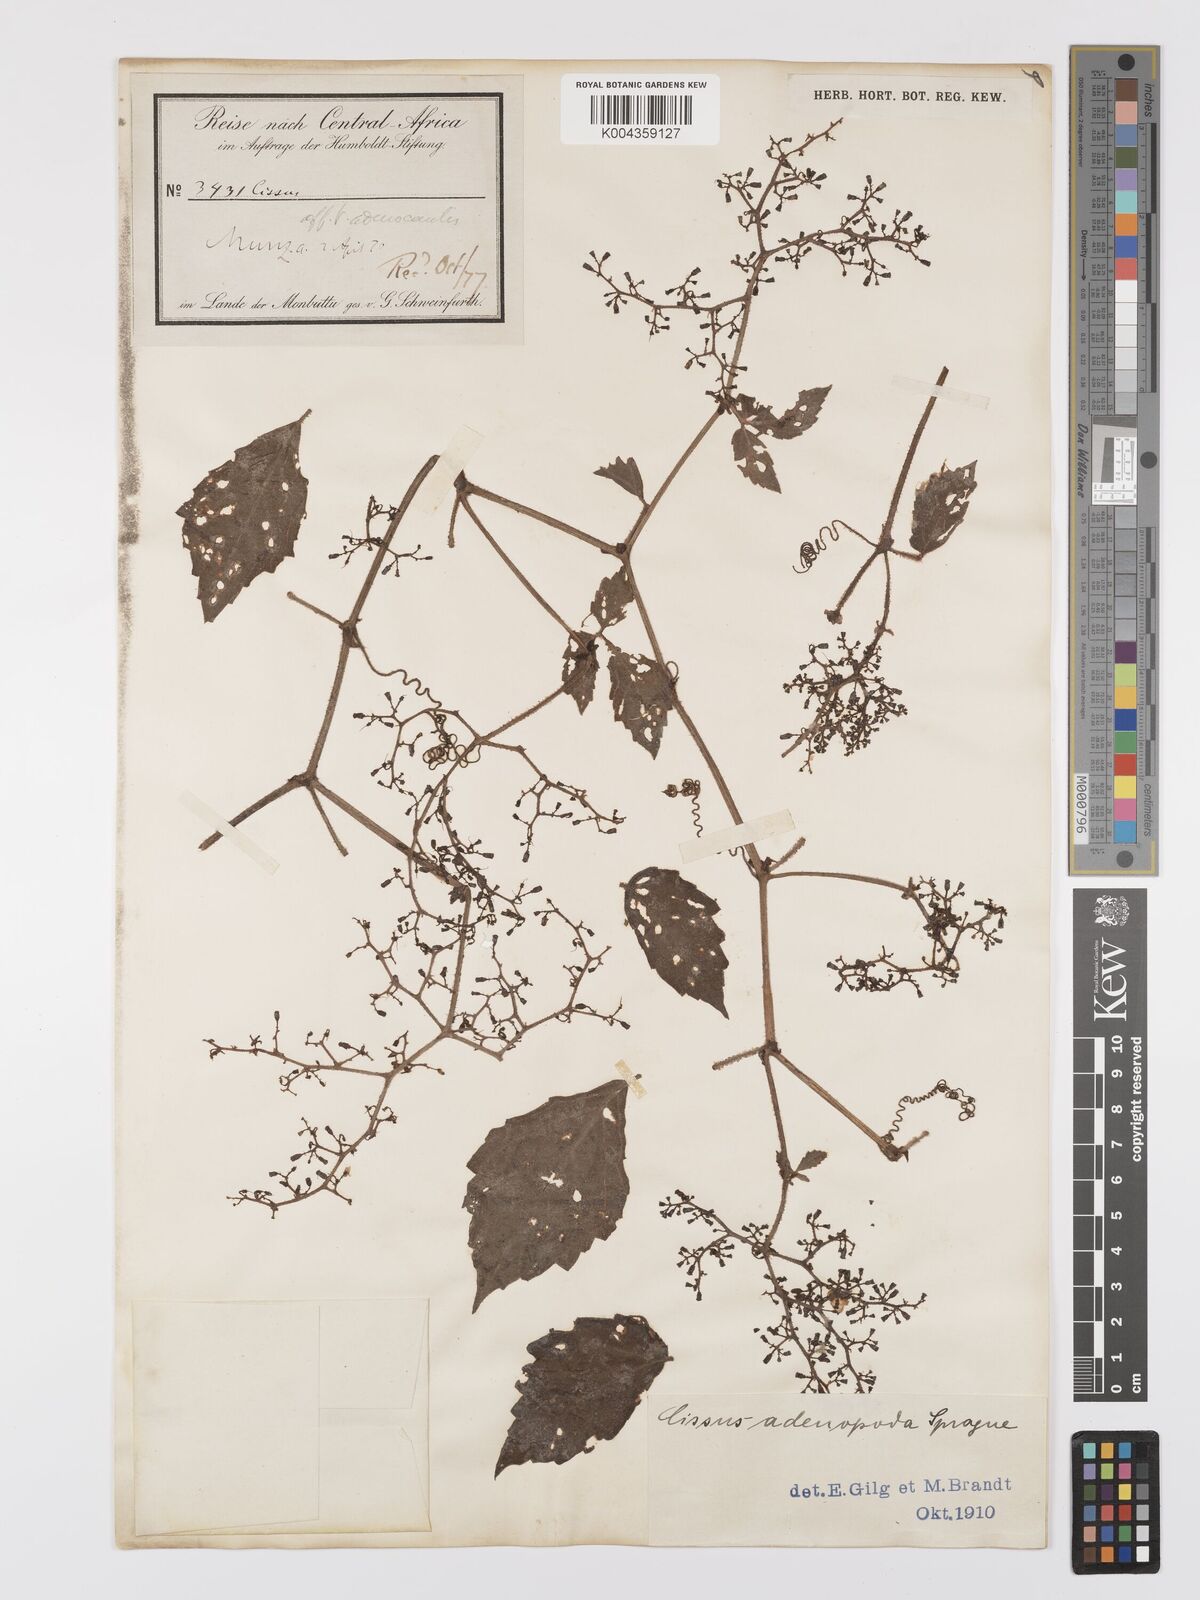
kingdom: Plantae
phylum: Tracheophyta
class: Magnoliopsida
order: Vitales
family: Vitaceae
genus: Cyphostemma
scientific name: Cyphostemma adenopodum
